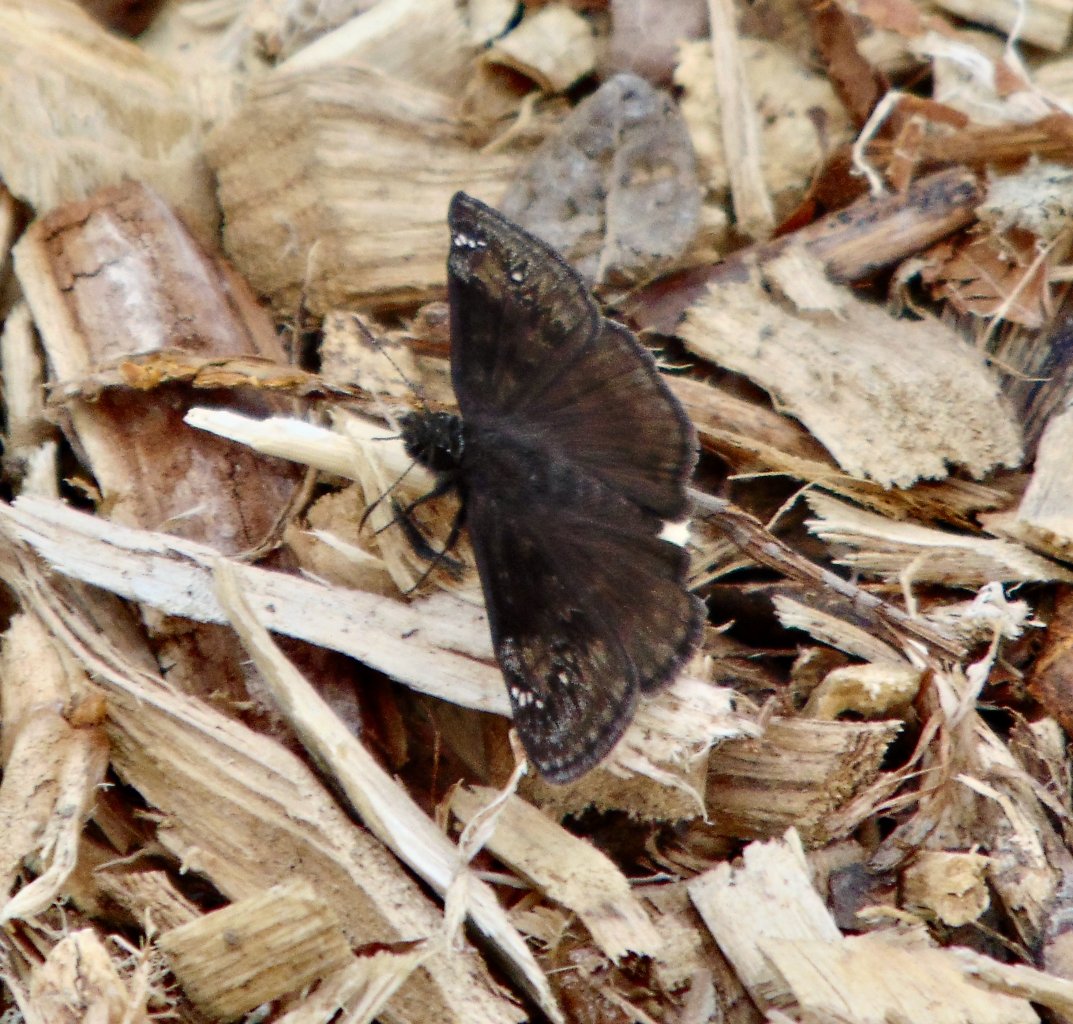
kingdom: Animalia
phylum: Arthropoda
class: Insecta
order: Lepidoptera
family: Hesperiidae
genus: Gesta
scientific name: Gesta
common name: Wild Indigo Duskywing
